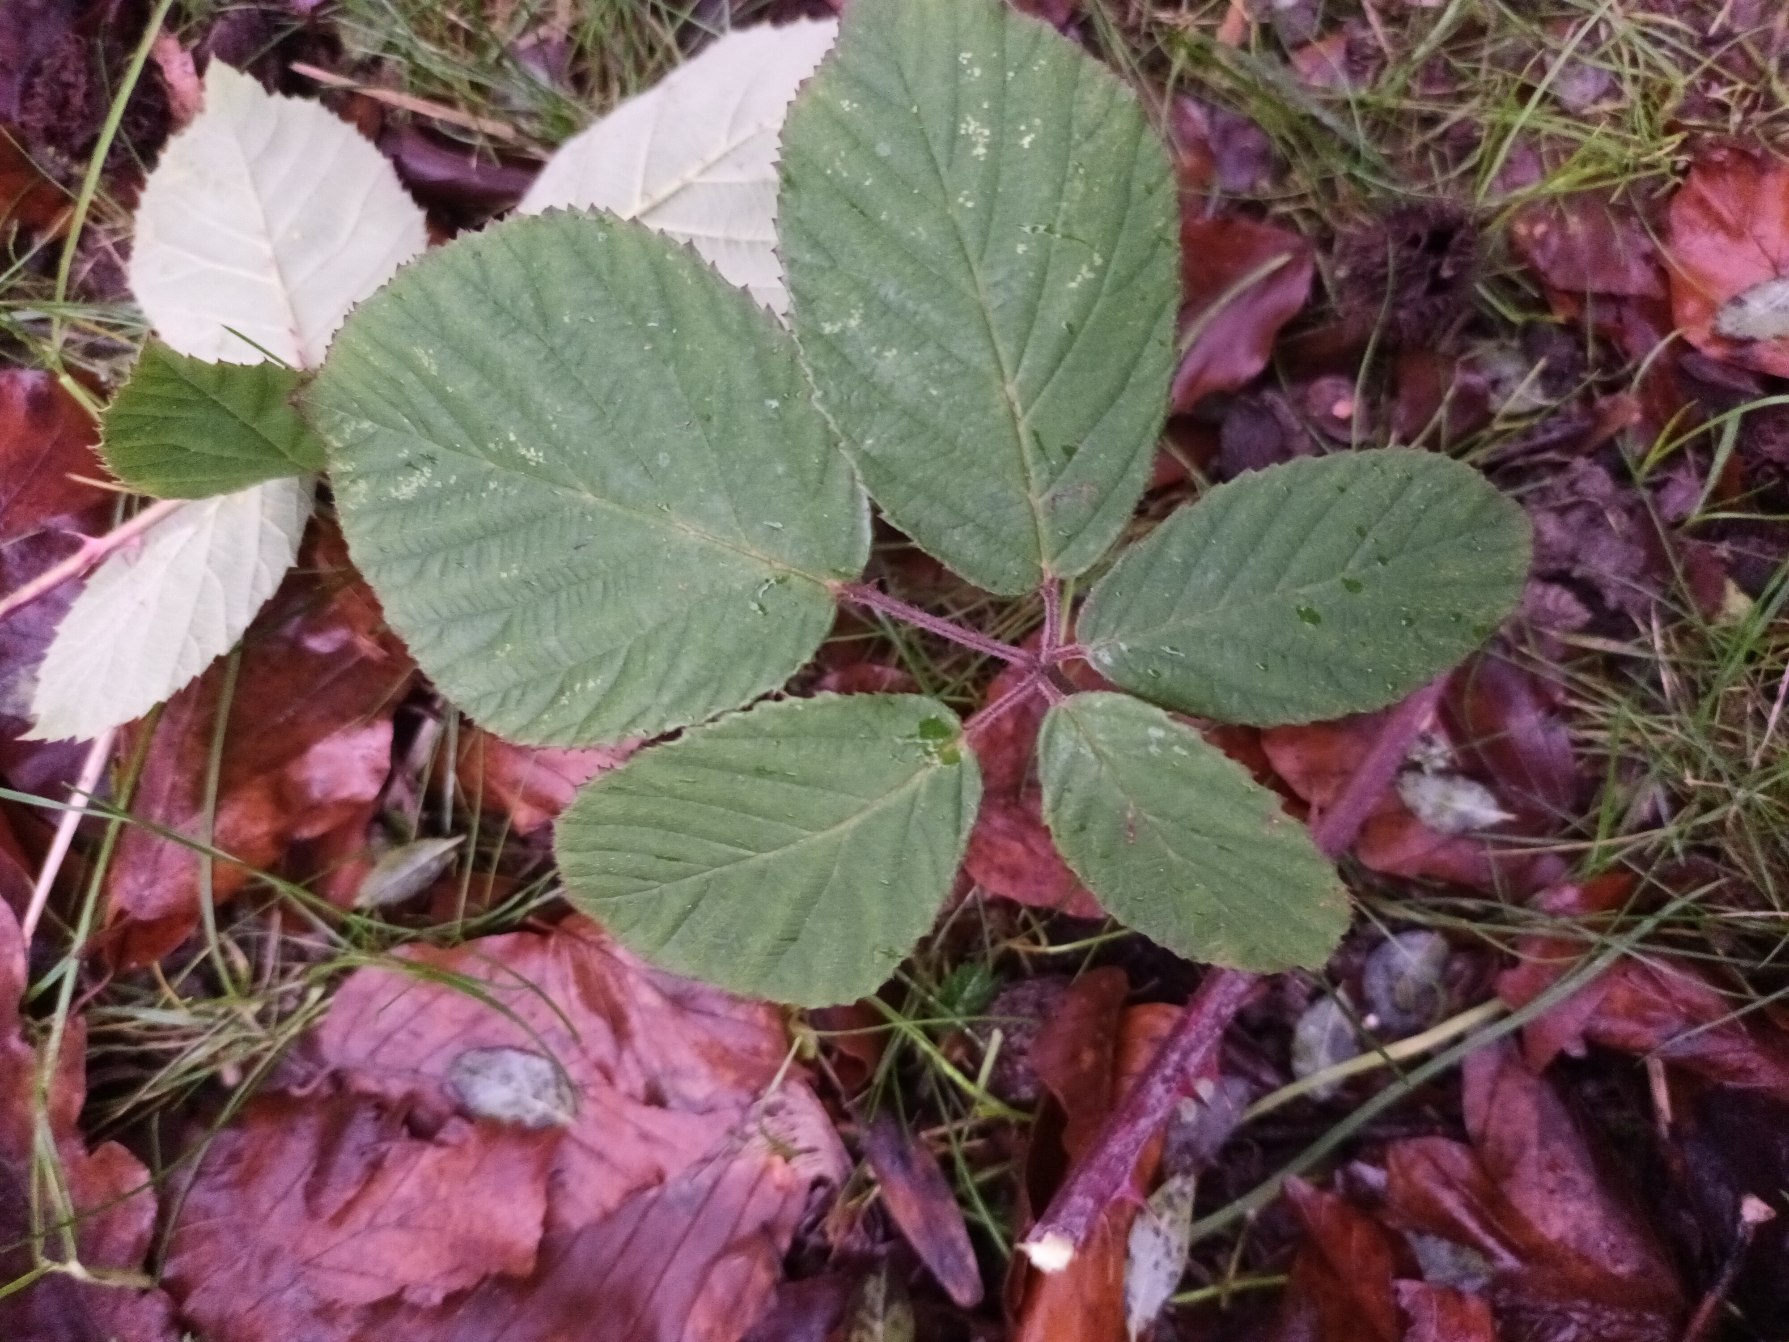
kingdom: Plantae
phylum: Tracheophyta
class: Magnoliopsida
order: Rosales
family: Rosaceae
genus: Rubus
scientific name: Rubus insularis
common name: Lodden brombær
